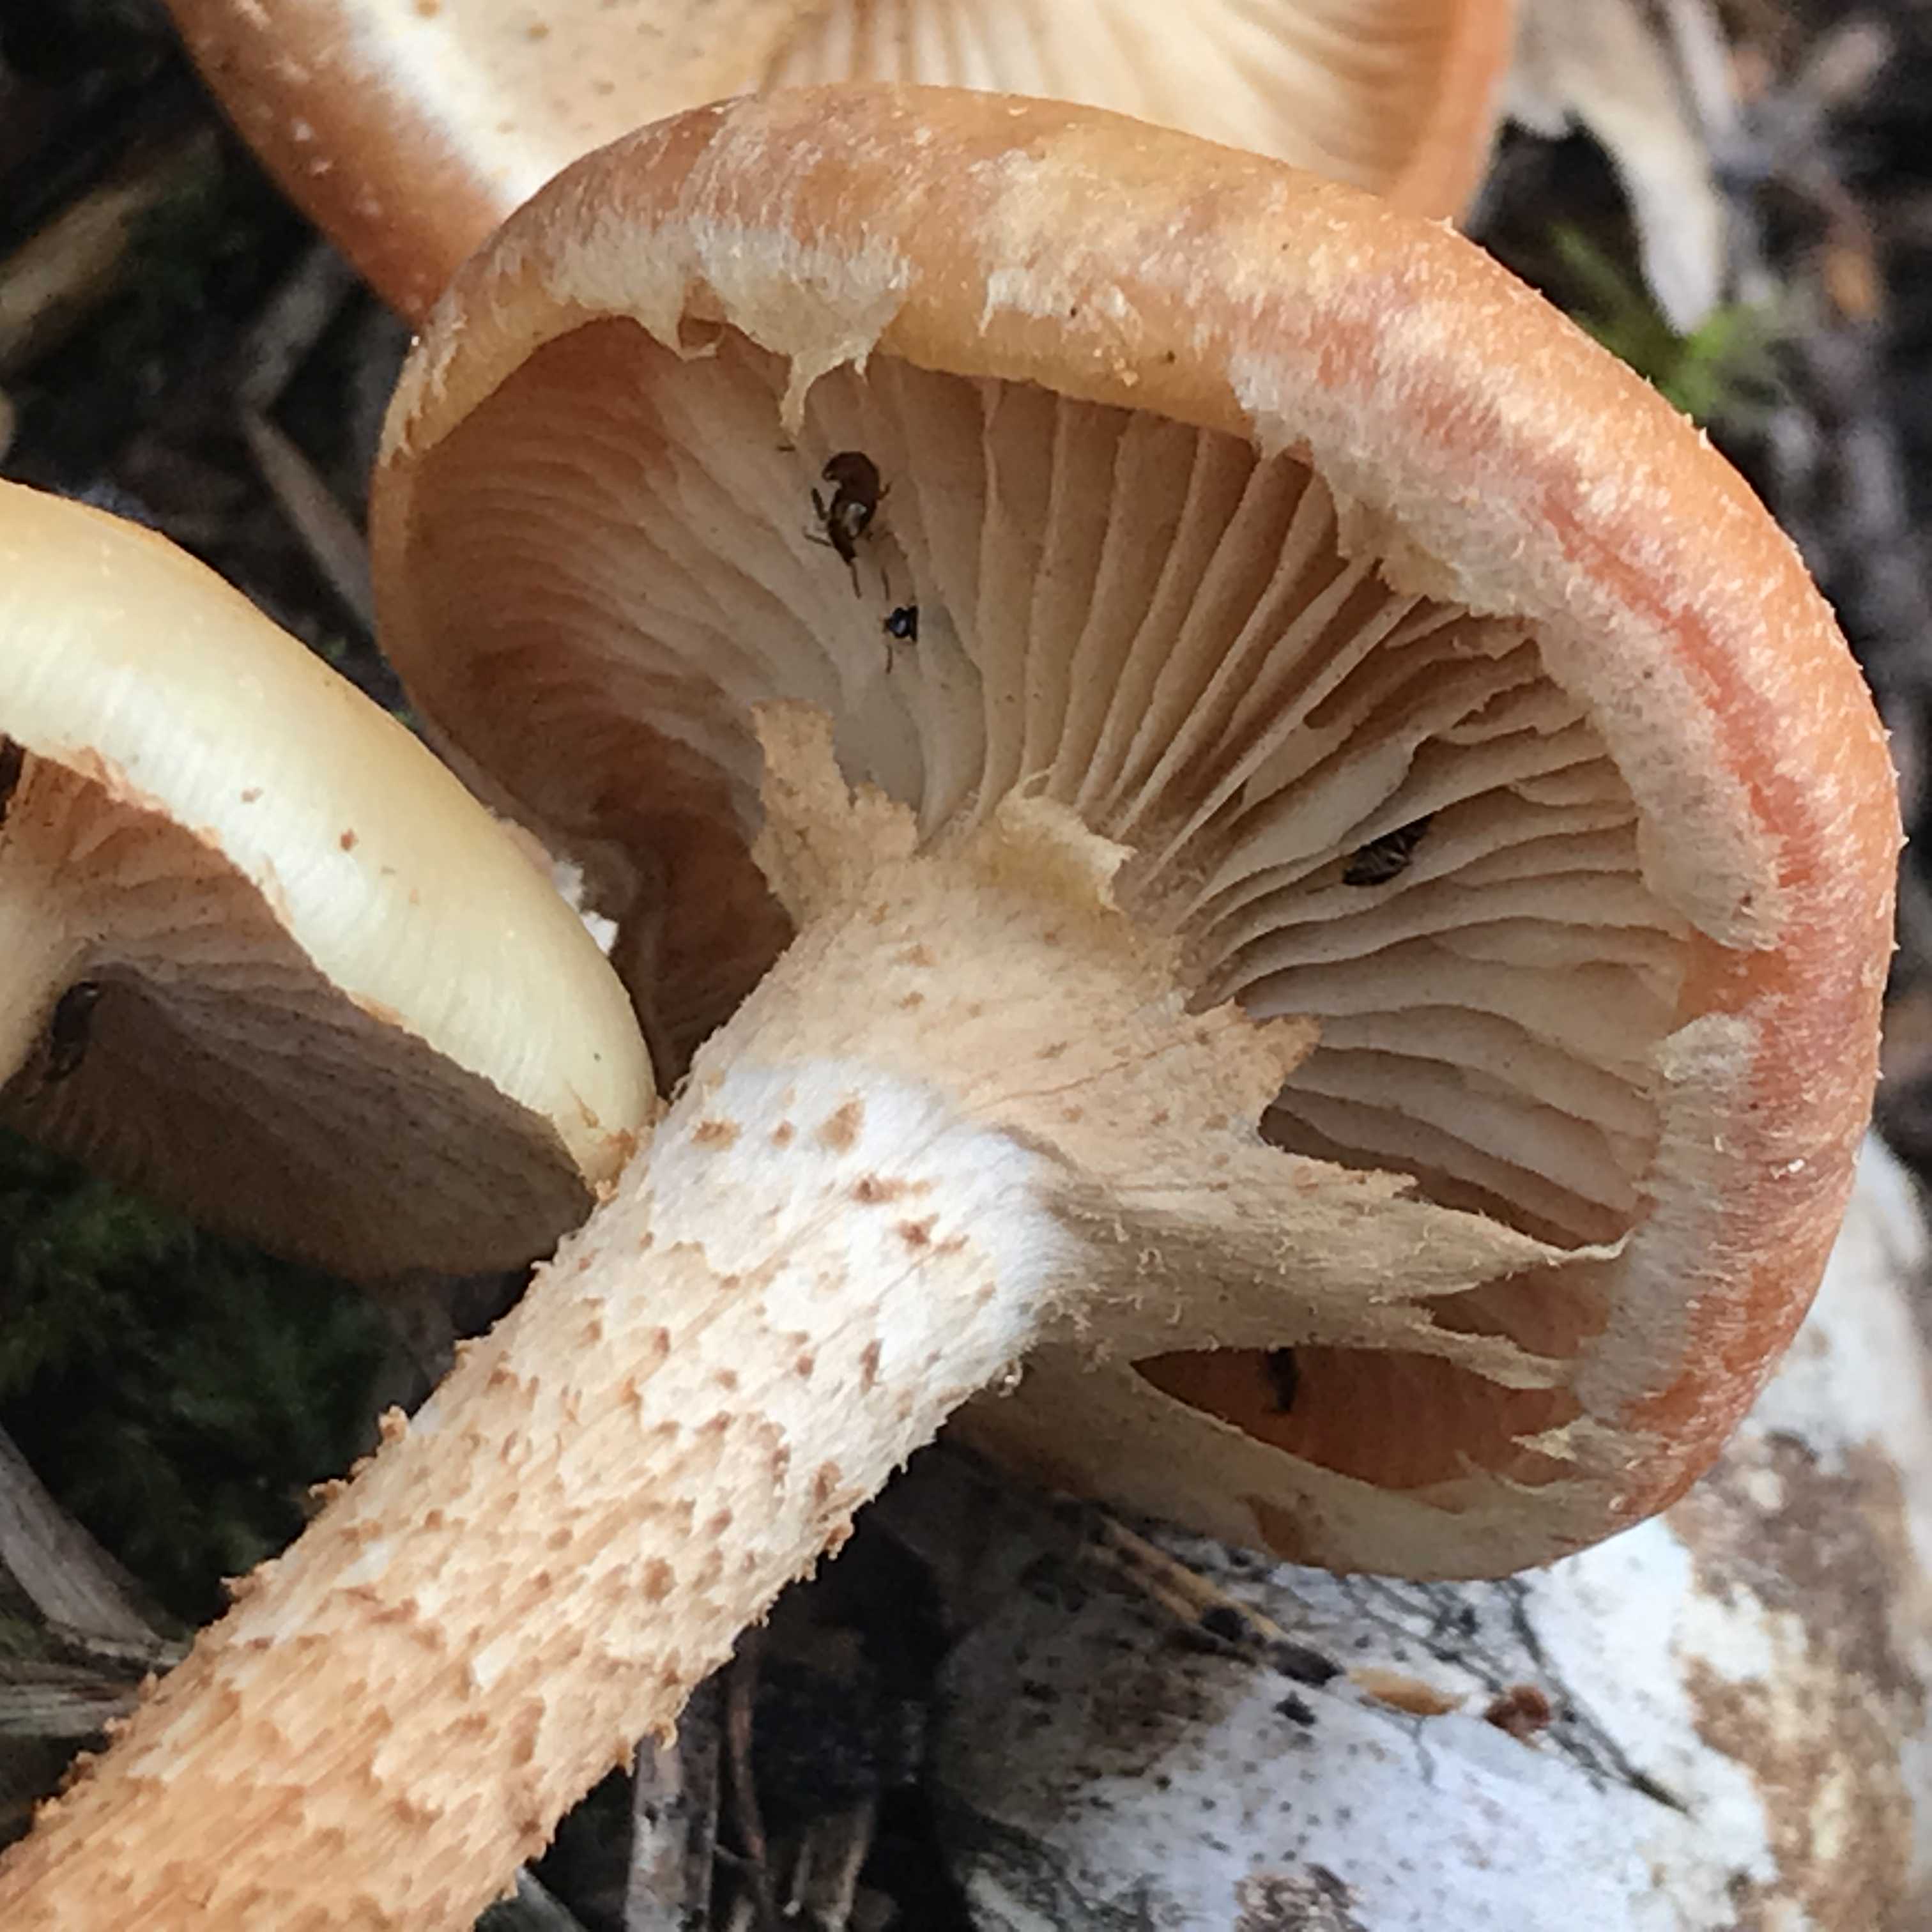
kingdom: Fungi
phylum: Basidiomycota
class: Agaricomycetes
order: Agaricales
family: Strophariaceae
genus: Kuehneromyces
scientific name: Kuehneromyces mutabilis
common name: foranderlig skælhat
